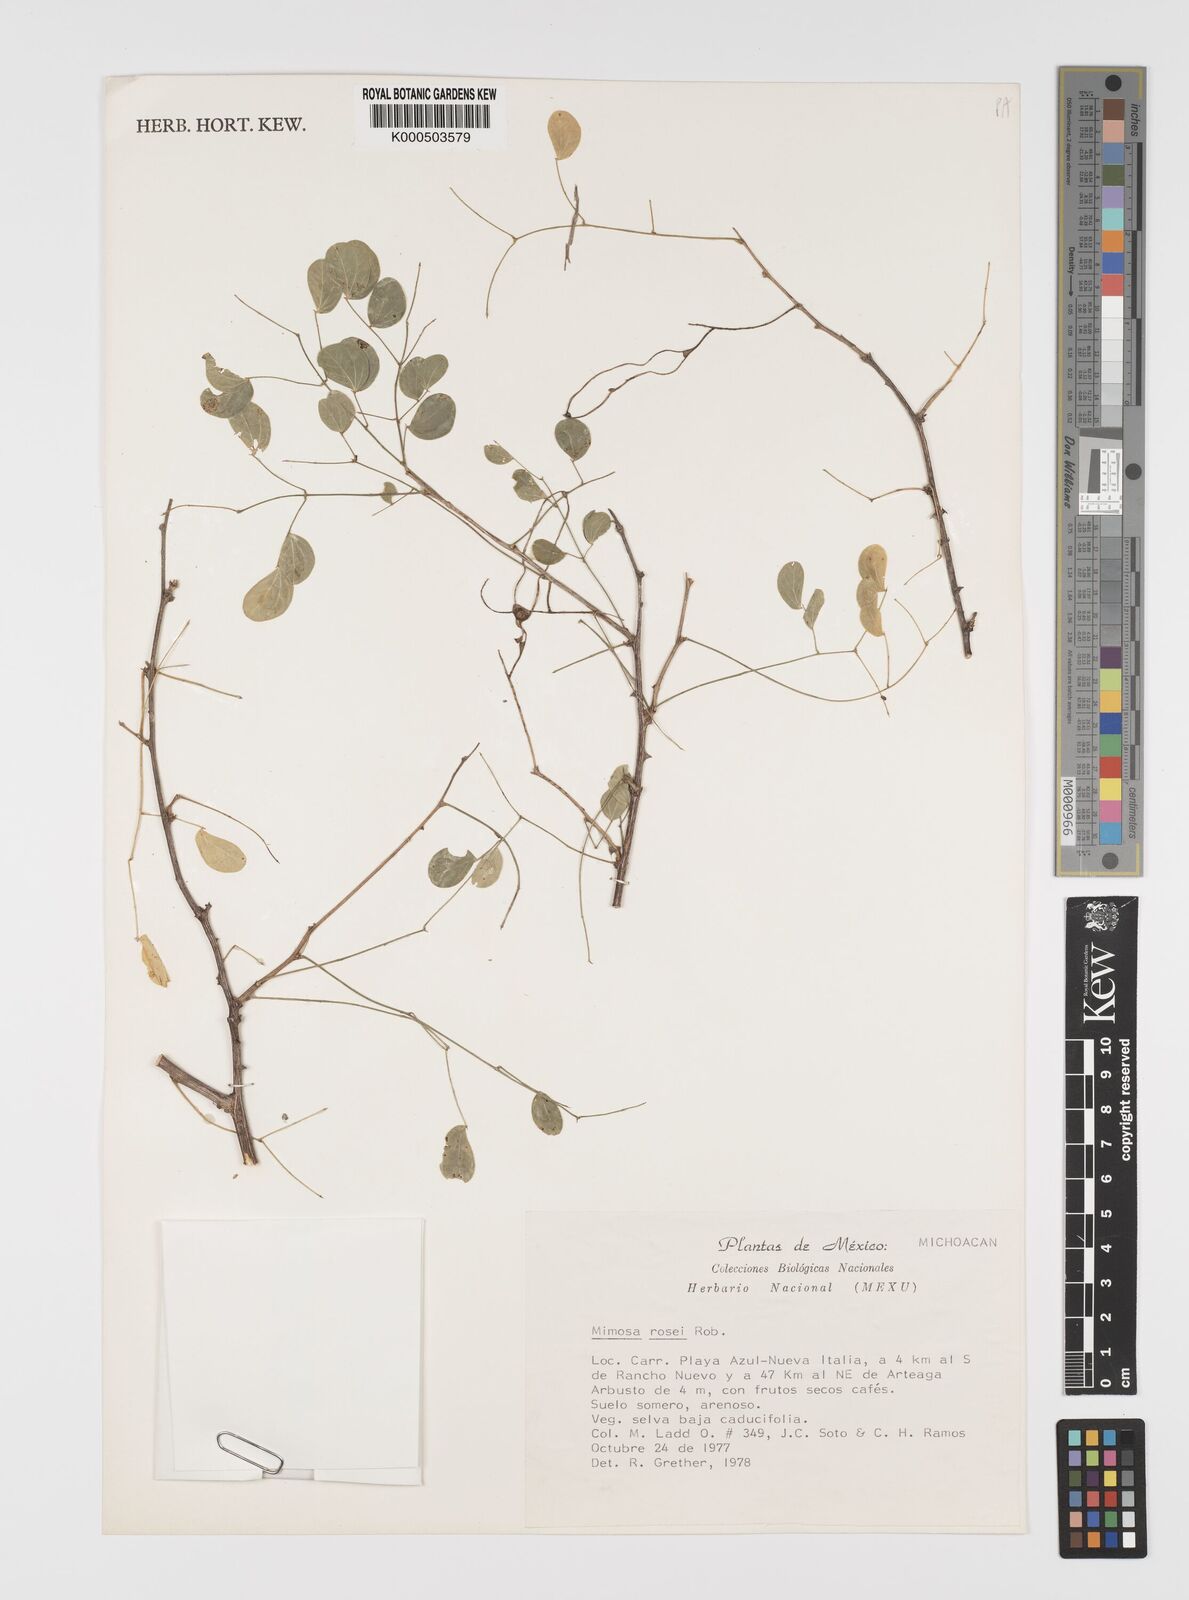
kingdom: Plantae
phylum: Tracheophyta
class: Magnoliopsida
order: Fabales
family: Fabaceae
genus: Mimosa
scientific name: Mimosa rosei
